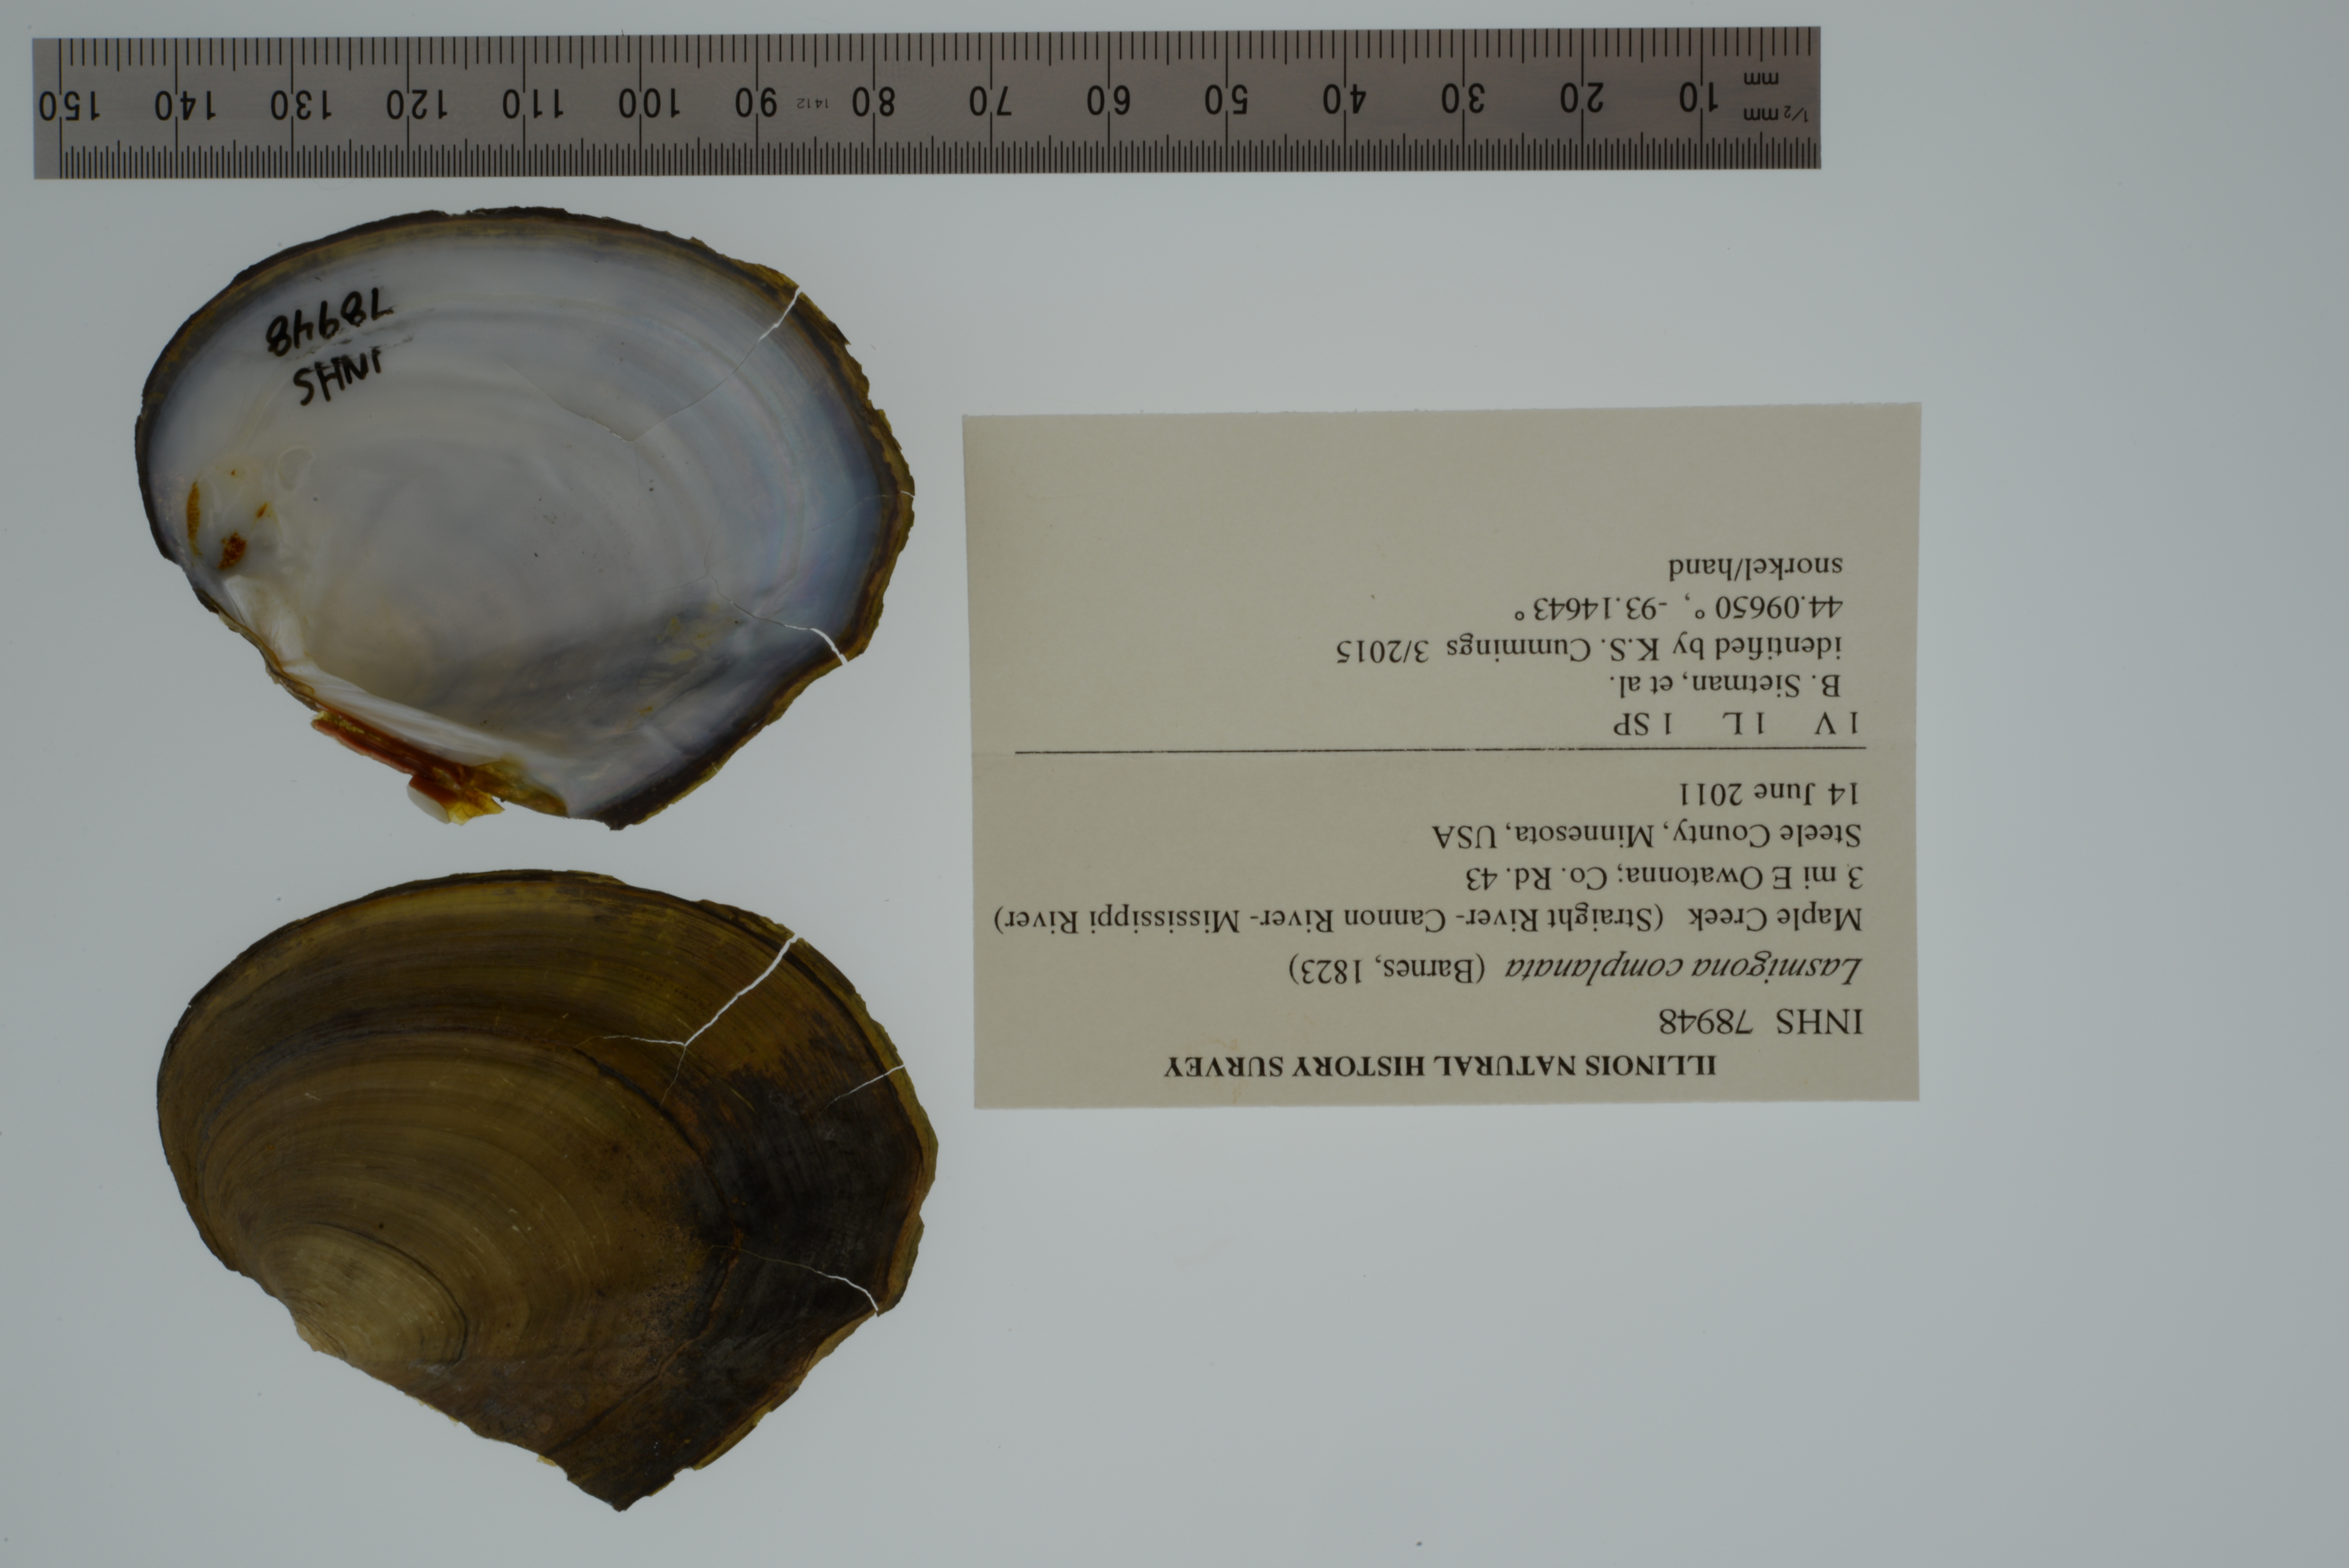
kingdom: Animalia
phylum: Mollusca
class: Bivalvia
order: Unionida
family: Unionidae
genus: Lasmigona
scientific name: Lasmigona complanata
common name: White heelsplitter
